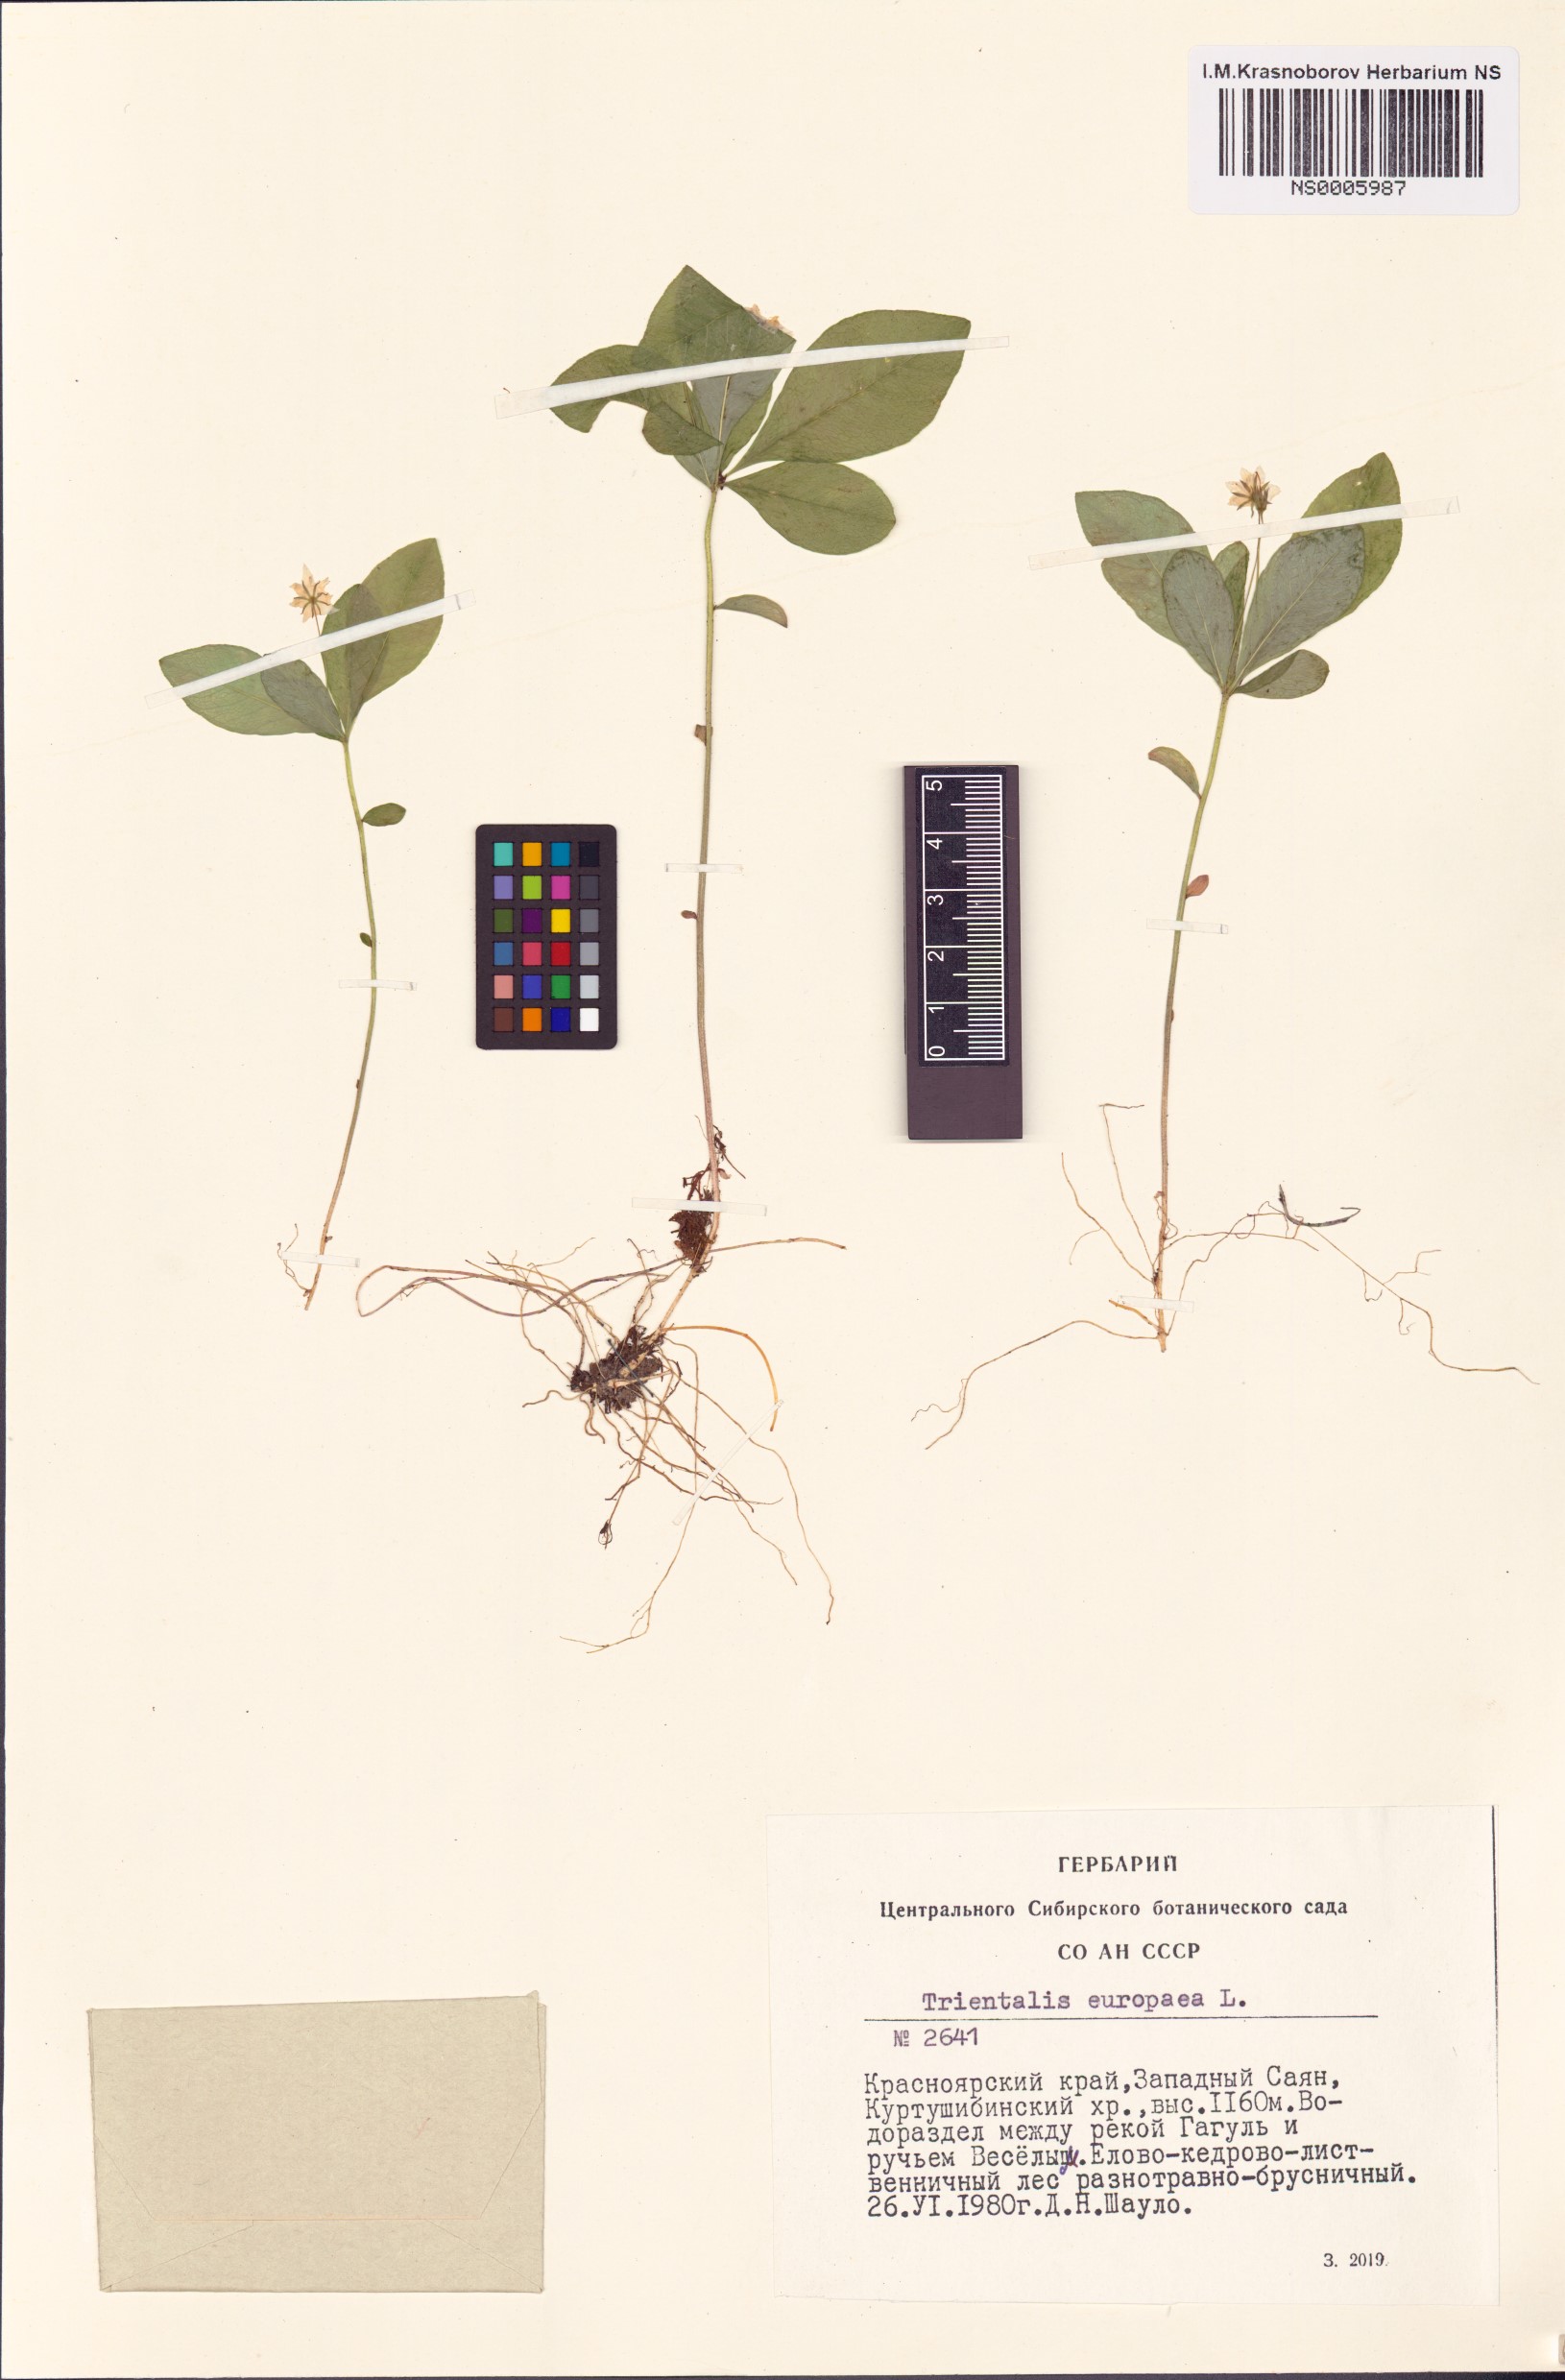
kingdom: Plantae
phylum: Tracheophyta
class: Magnoliopsida
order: Ericales
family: Primulaceae
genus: Lysimachia
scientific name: Lysimachia europaea
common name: Arctic starflower
